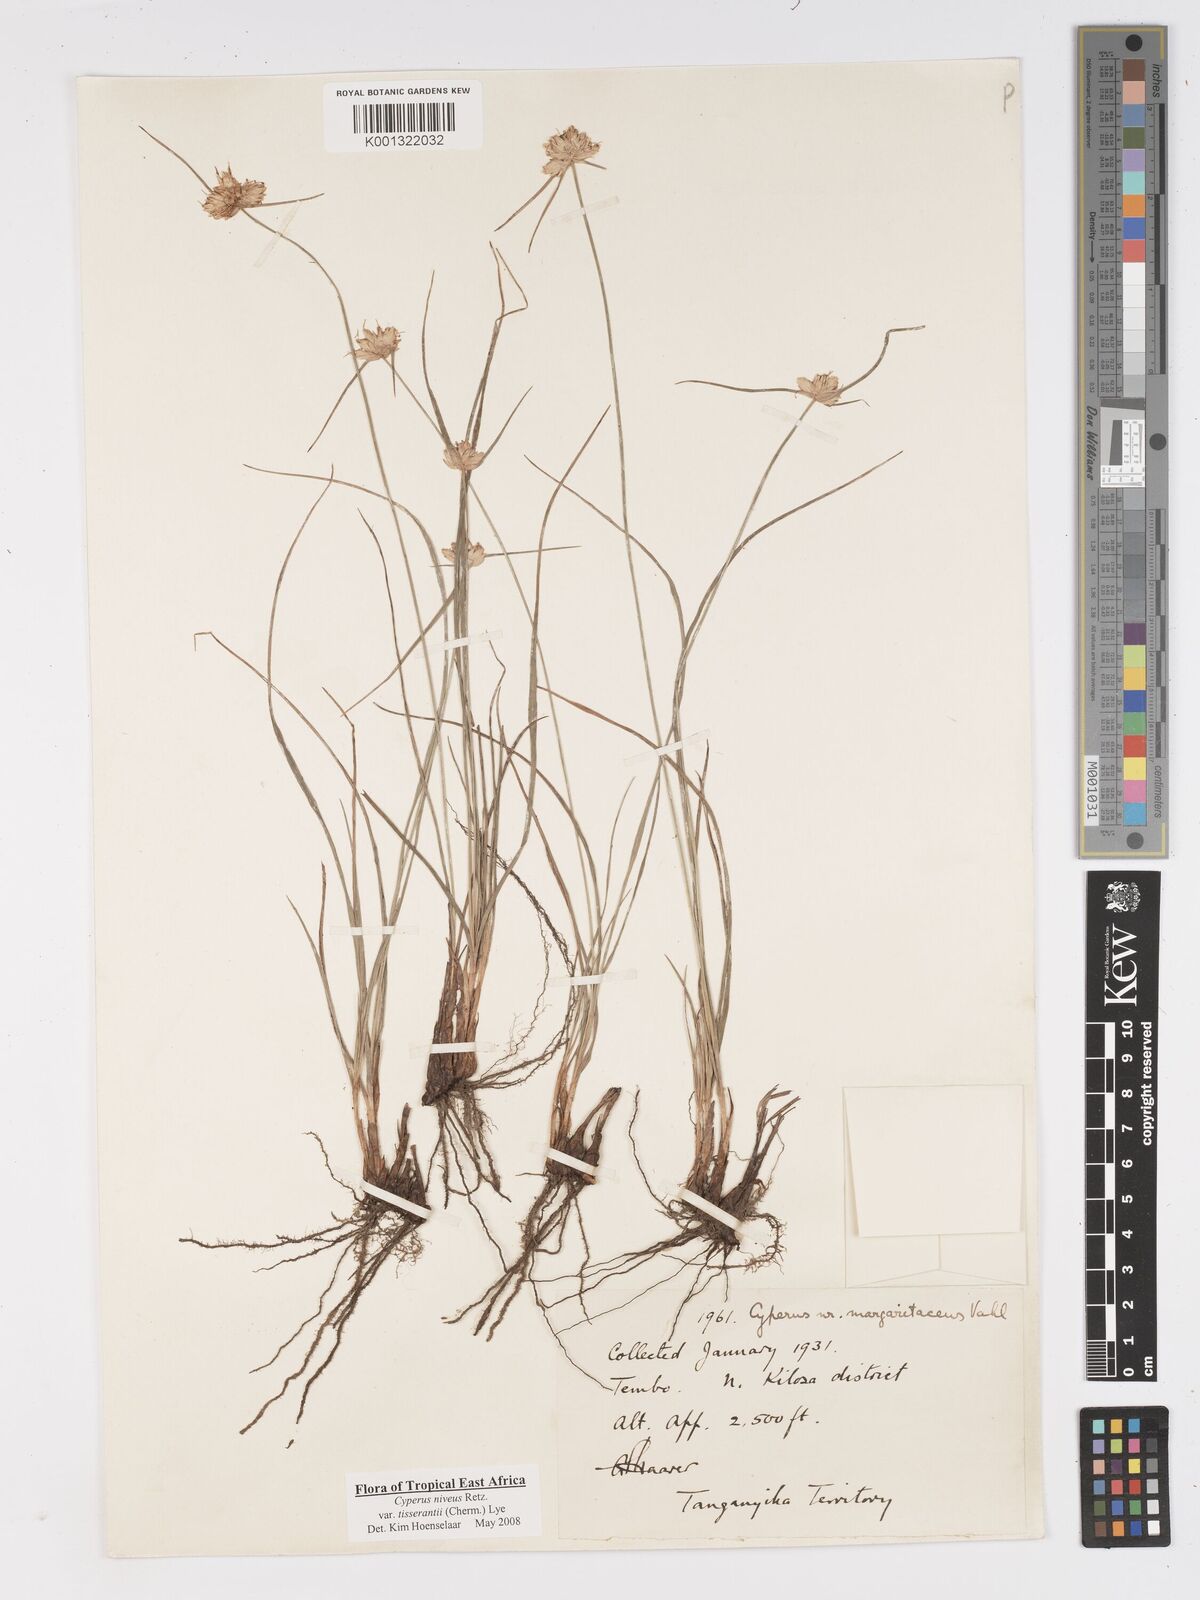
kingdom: Plantae
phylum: Tracheophyta
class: Liliopsida
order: Poales
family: Cyperaceae
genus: Cyperus
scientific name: Cyperus niveus
